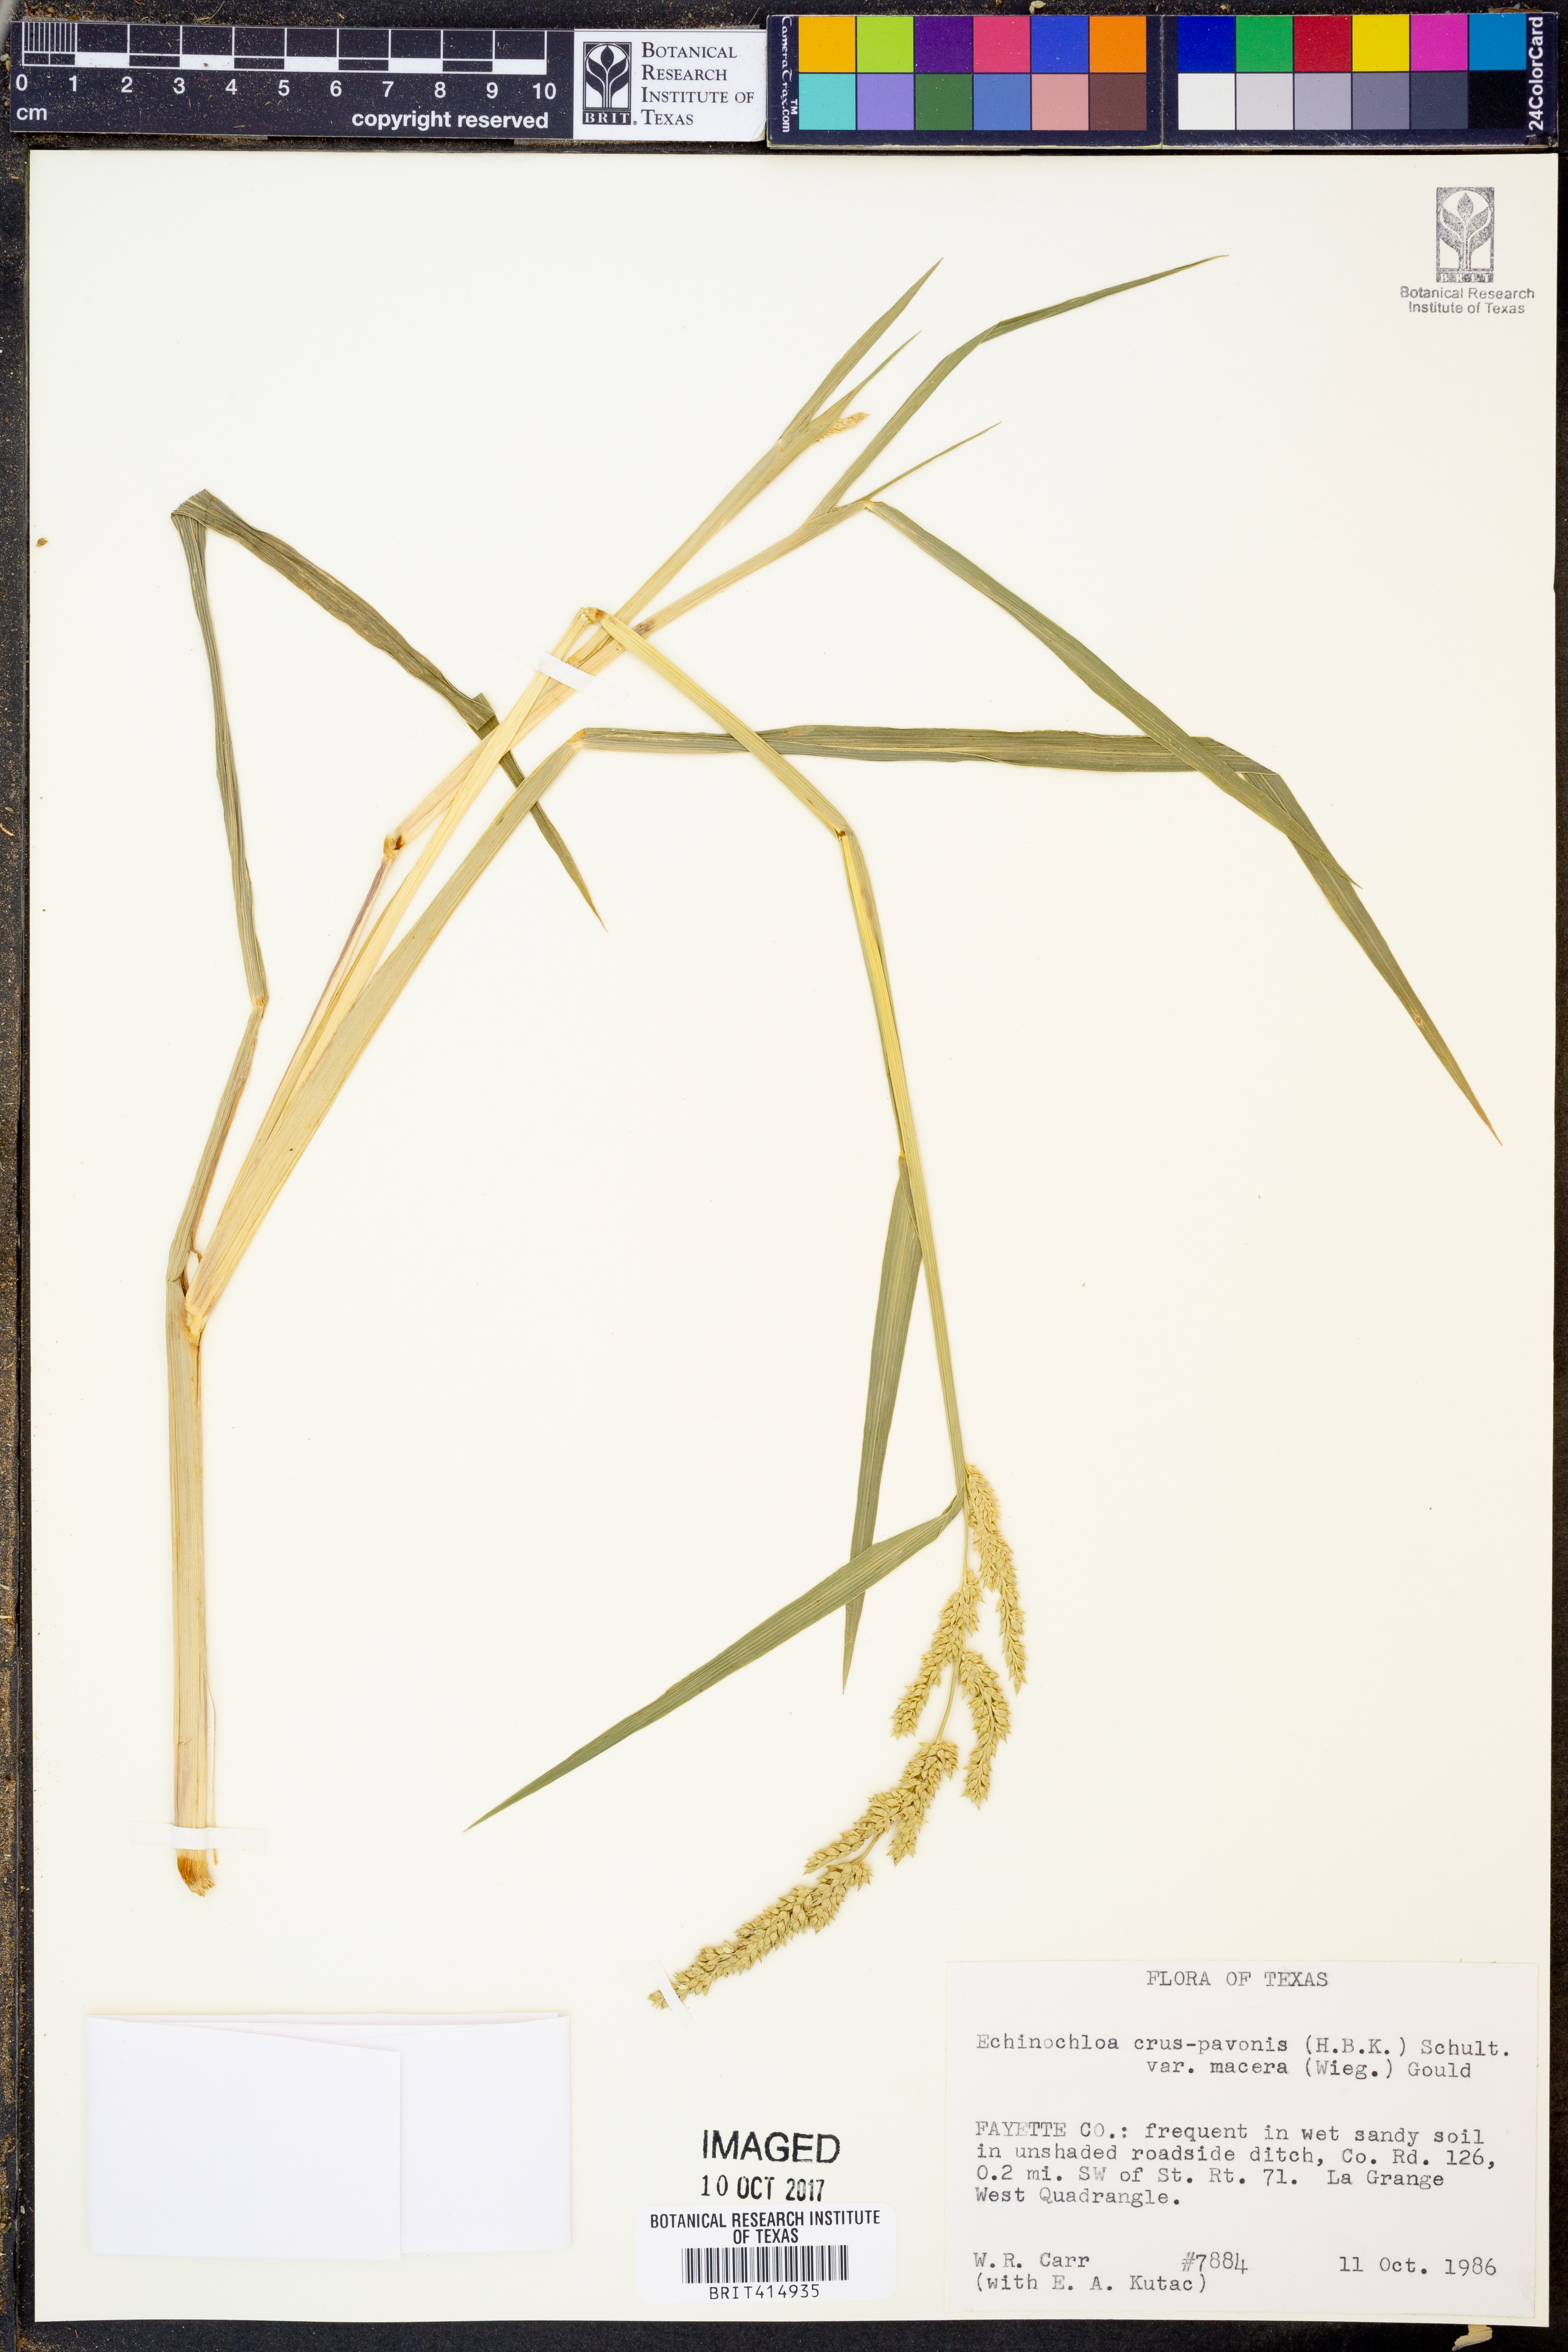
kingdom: Plantae
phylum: Tracheophyta
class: Liliopsida
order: Poales
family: Poaceae
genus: Echinochloa
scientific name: Echinochloa crus-pavonis
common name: Gulf cockspur grass
